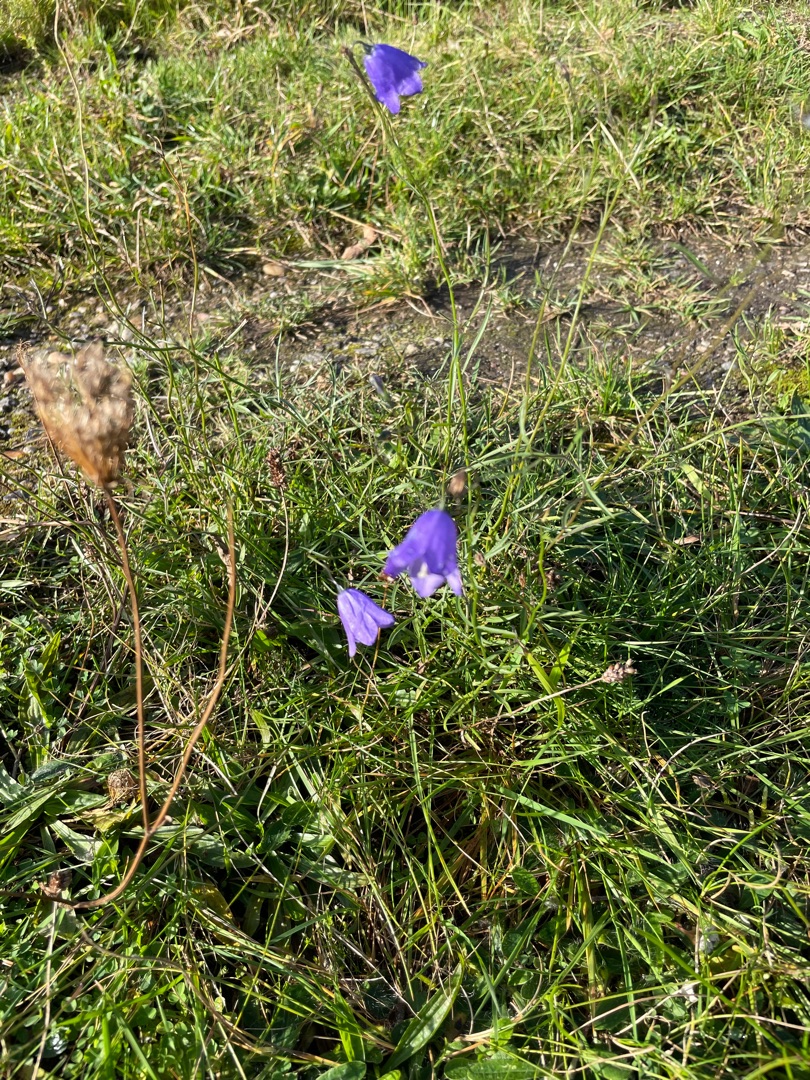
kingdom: Plantae
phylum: Tracheophyta
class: Magnoliopsida
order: Asterales
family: Campanulaceae
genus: Campanula
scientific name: Campanula rotundifolia
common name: Liden klokke
